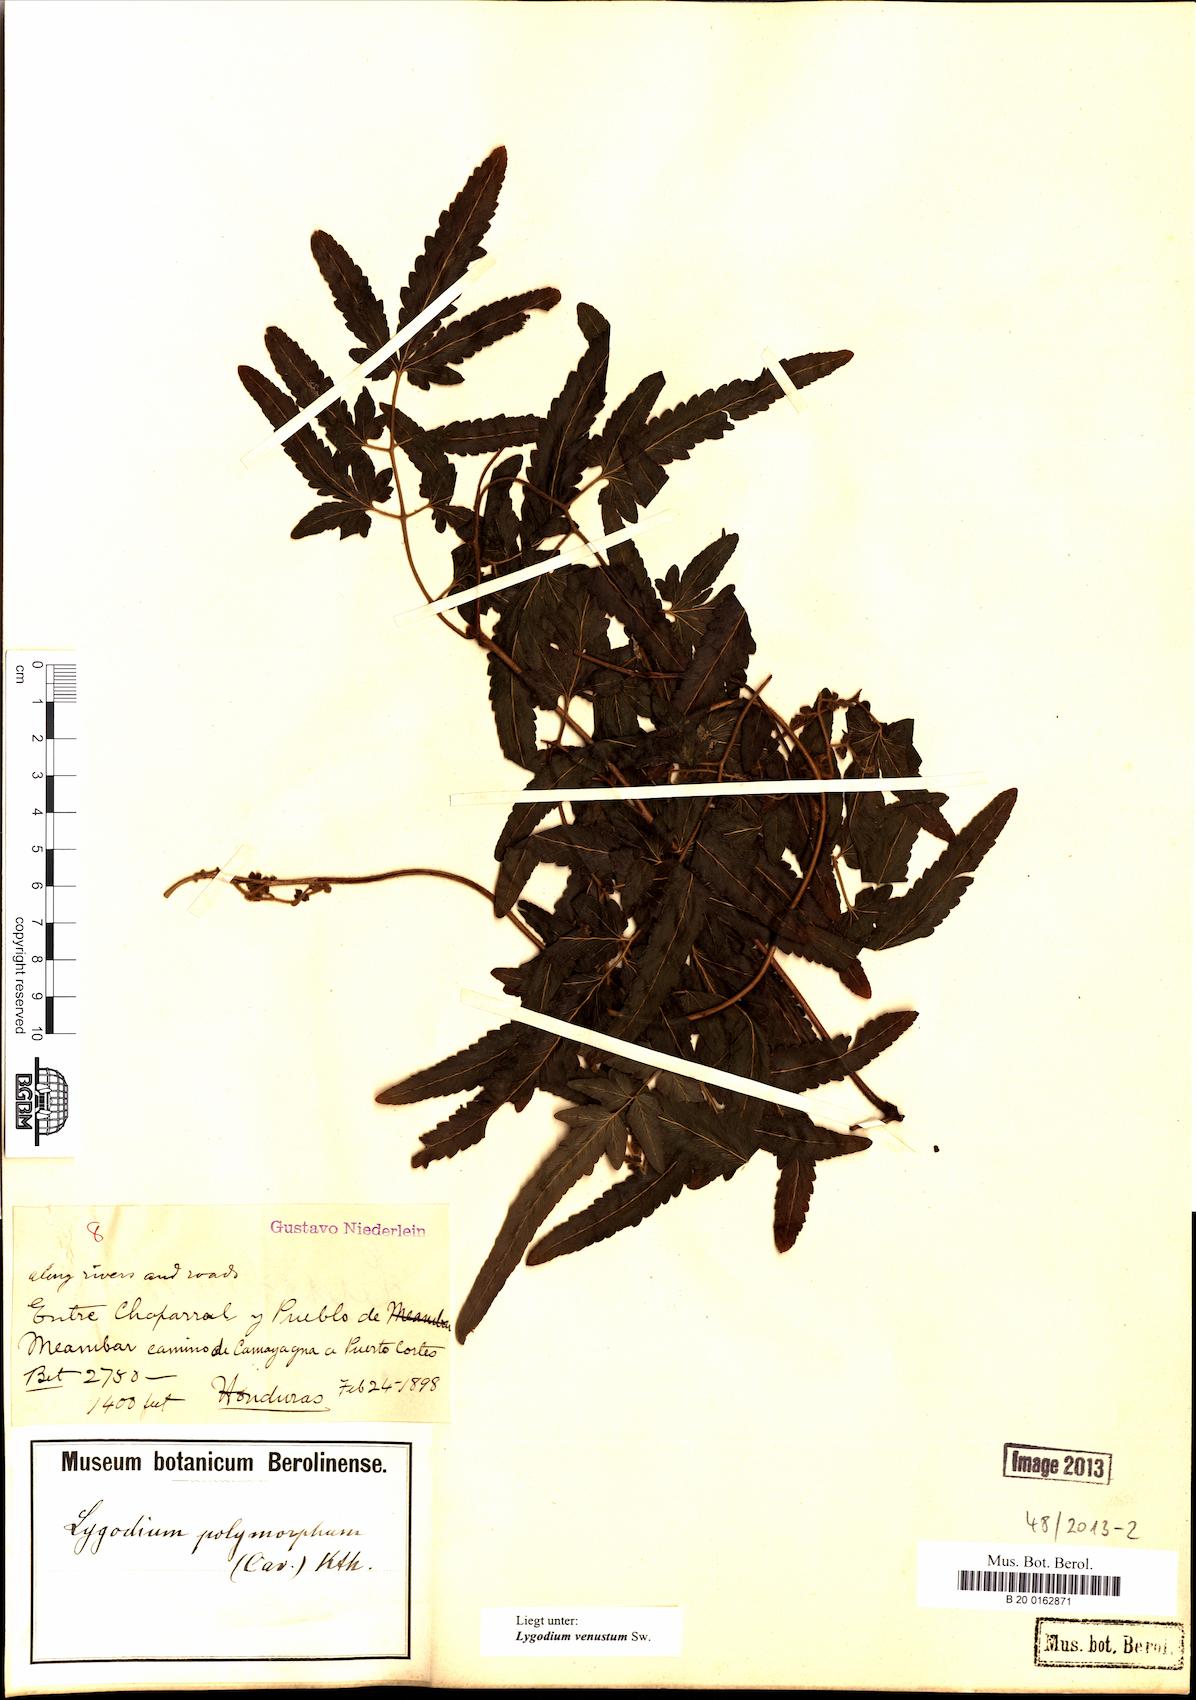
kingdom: Plantae
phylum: Tracheophyta
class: Polypodiopsida
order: Schizaeales
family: Lygodiaceae
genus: Lygodium
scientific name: Lygodium venustum
